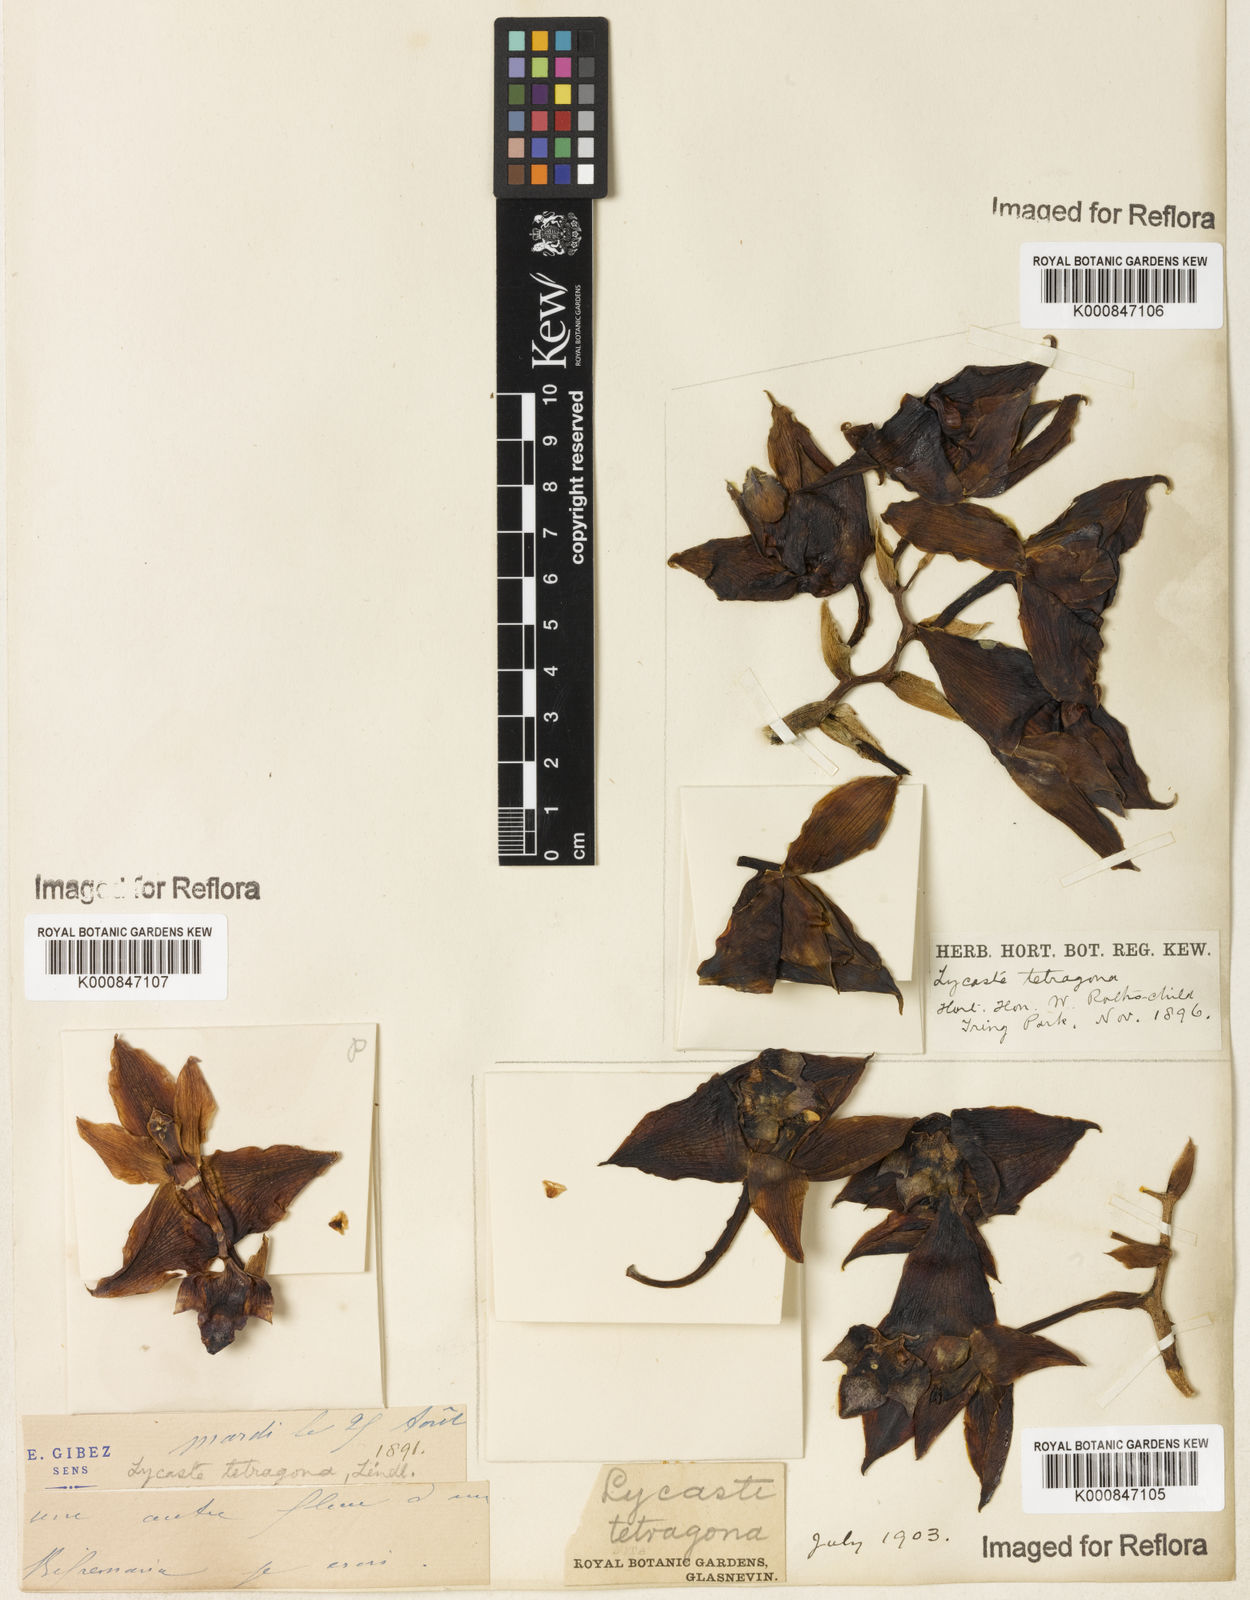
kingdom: Plantae
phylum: Tracheophyta
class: Liliopsida
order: Asparagales
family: Orchidaceae
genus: Bifrenaria
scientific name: Bifrenaria tetragona
